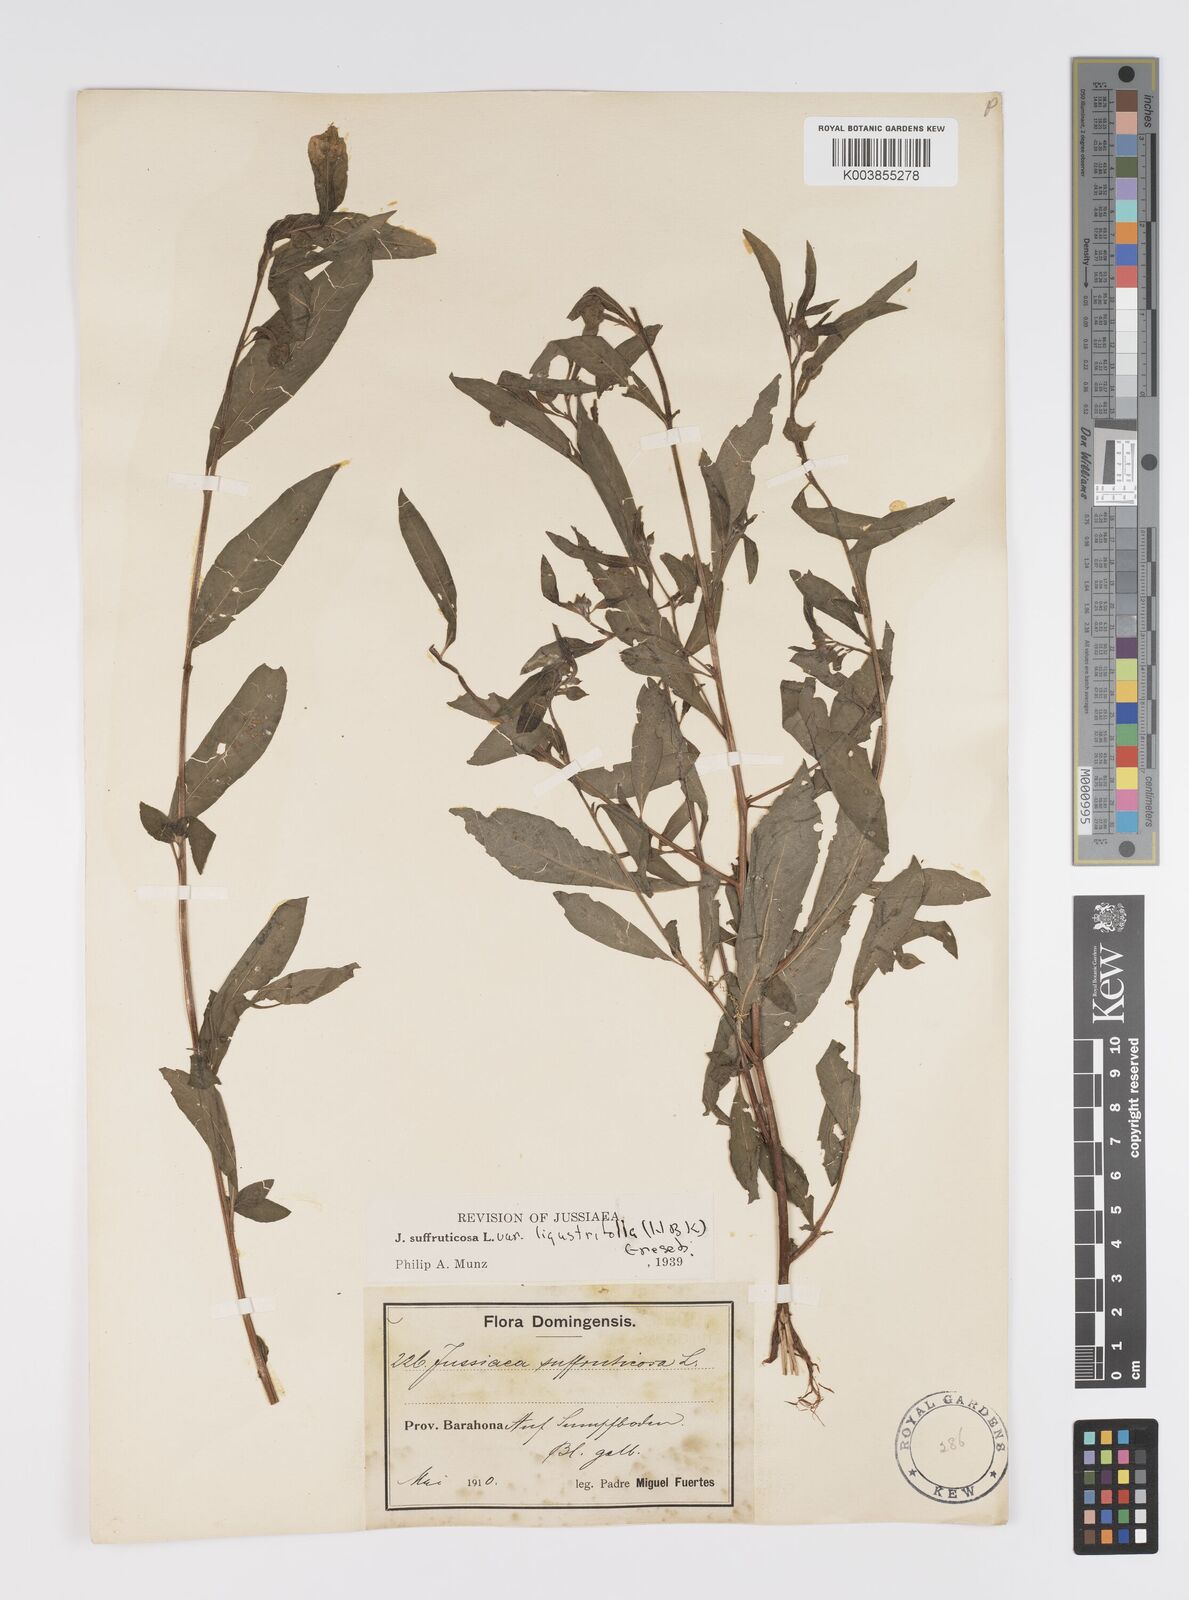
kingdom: Plantae
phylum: Tracheophyta
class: Magnoliopsida
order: Myrtales
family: Onagraceae
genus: Ludwigia
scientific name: Ludwigia octovalvis
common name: Water-primrose
